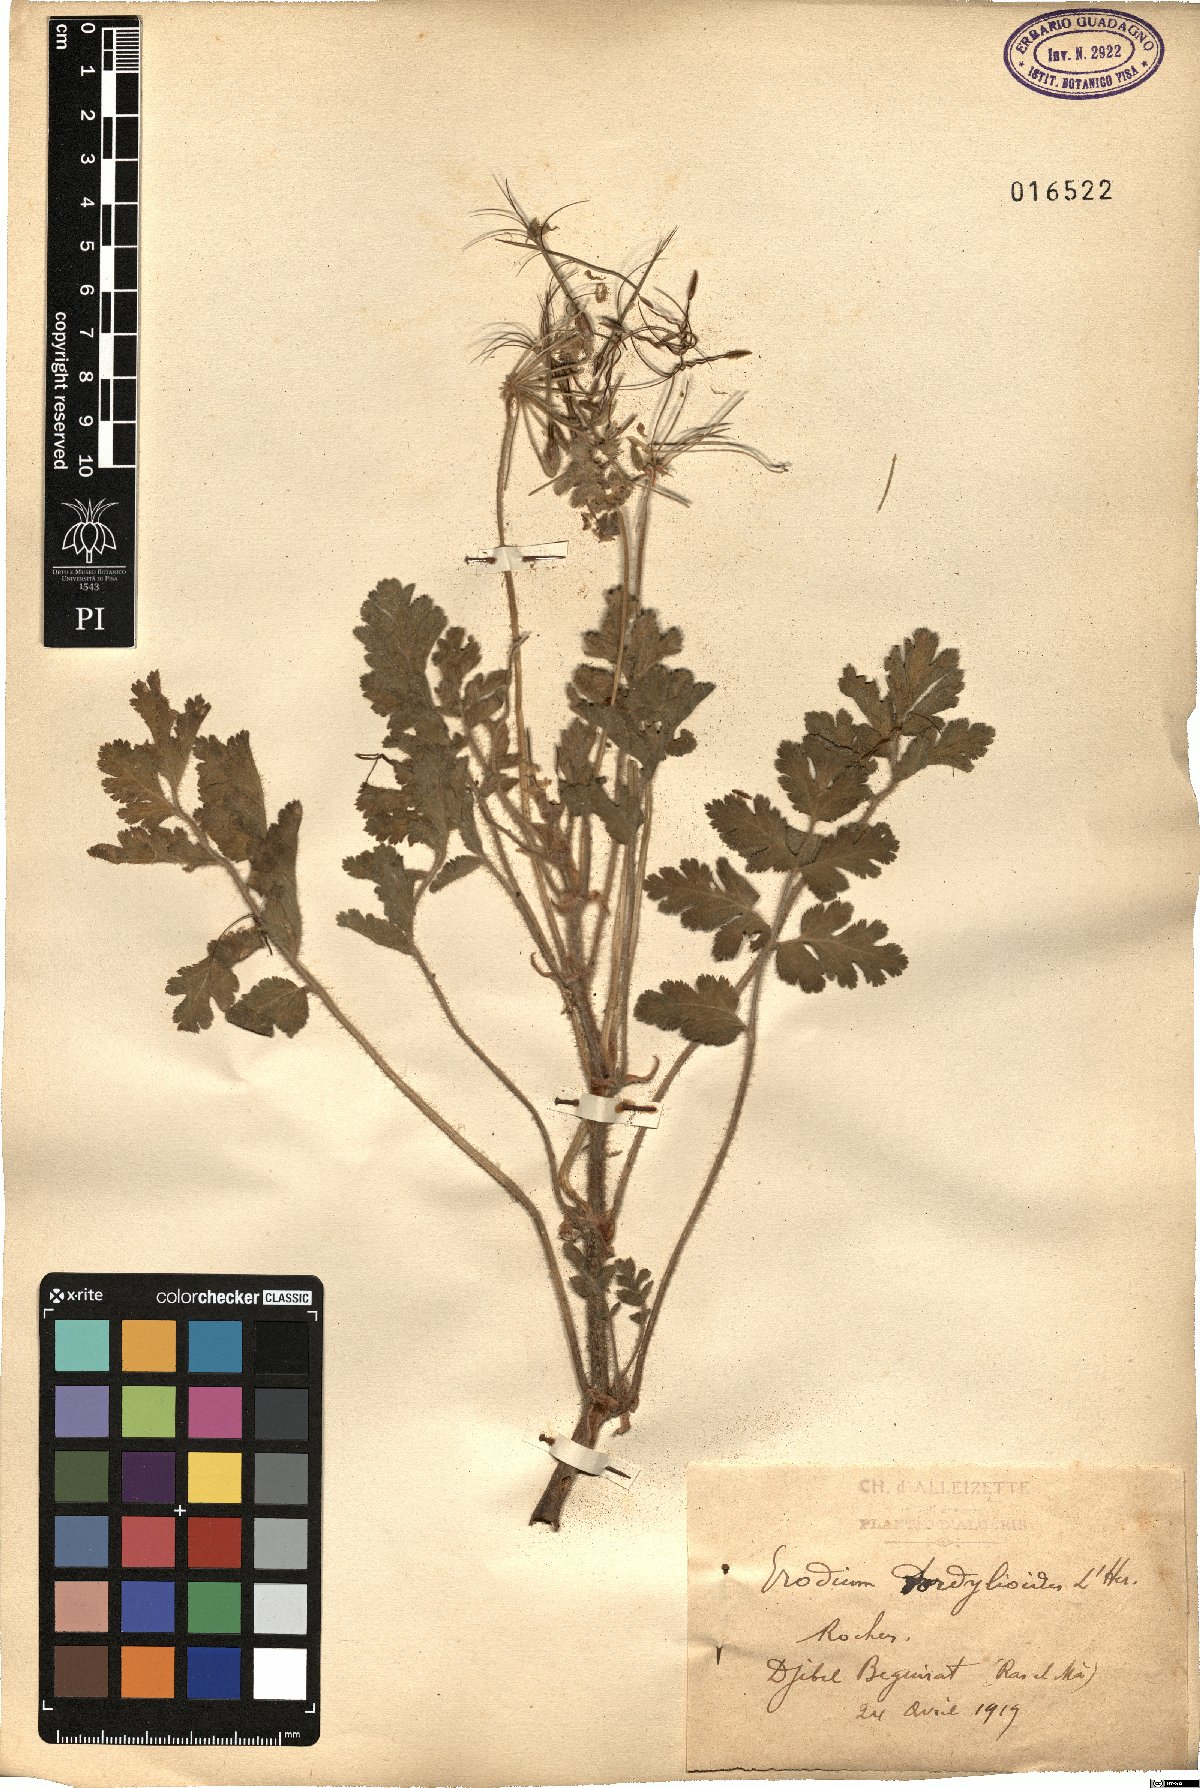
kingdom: Plantae
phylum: Tracheophyta
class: Magnoliopsida
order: Geraniales
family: Geraniaceae
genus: Erodium
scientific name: Erodium tordylioides
